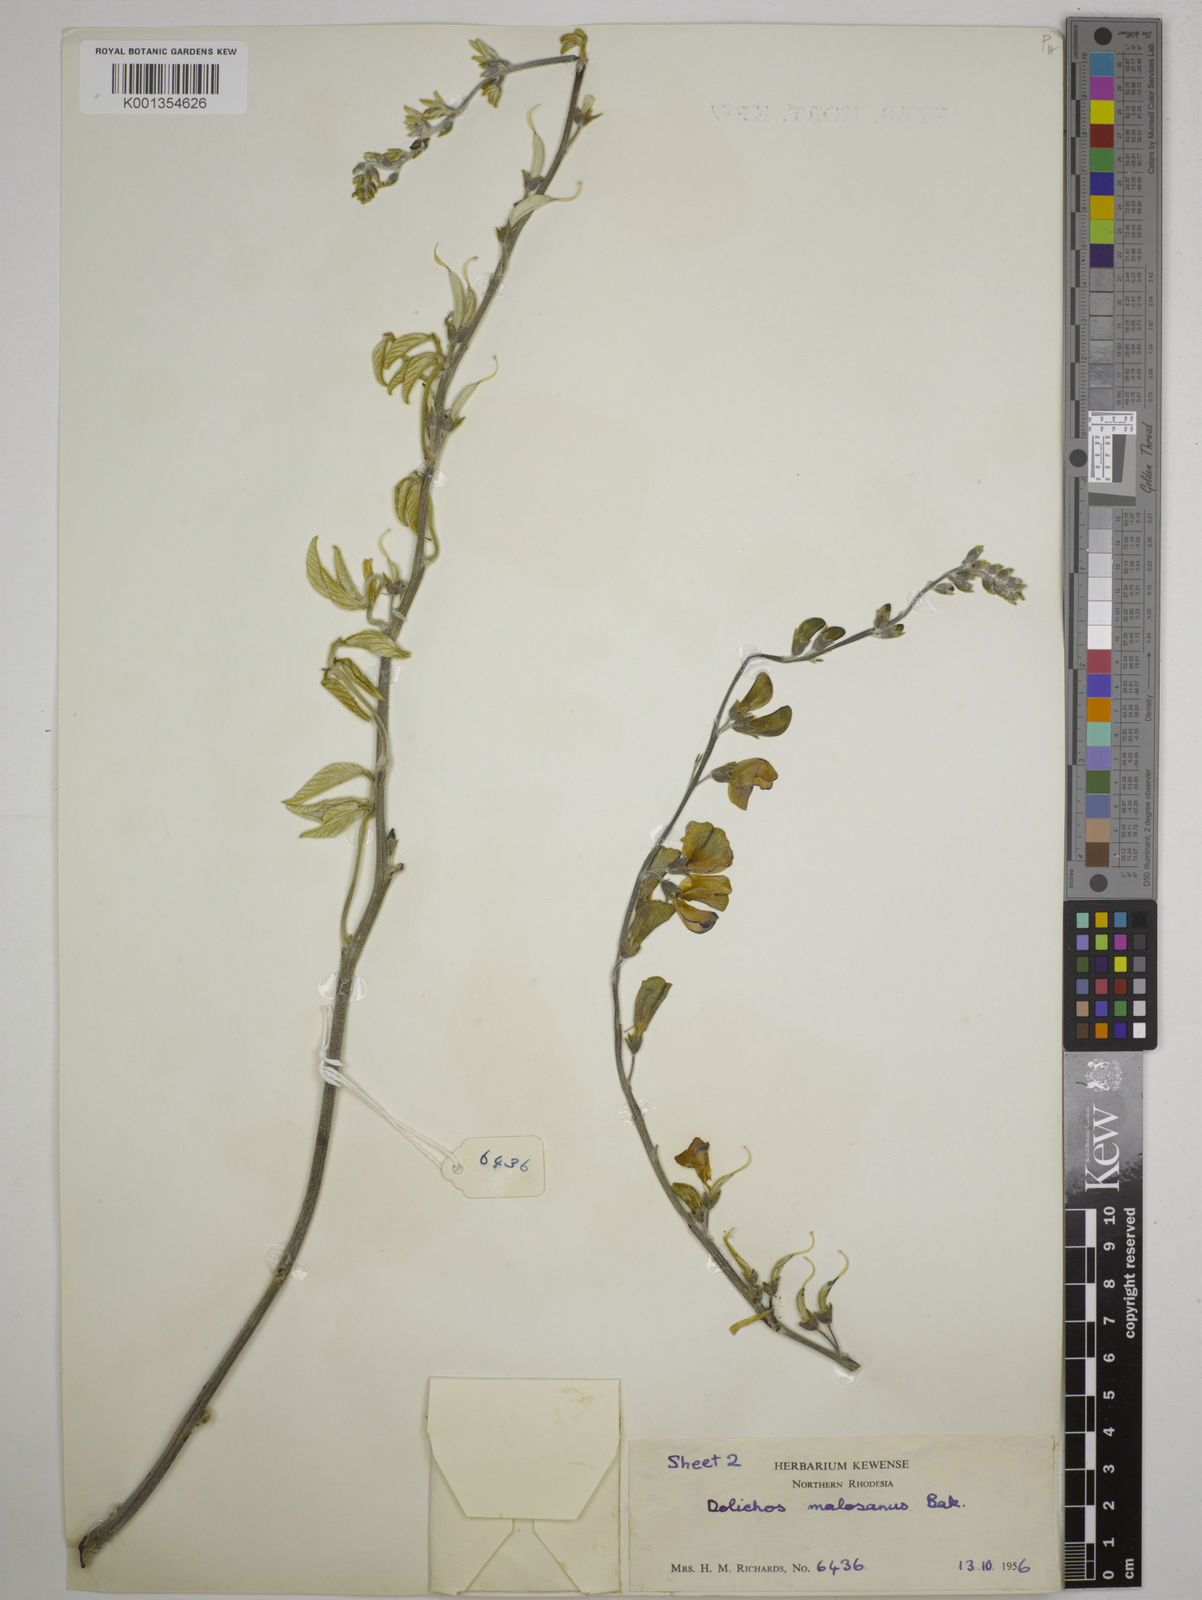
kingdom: Plantae
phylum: Tracheophyta
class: Magnoliopsida
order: Fabales
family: Fabaceae
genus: Dolichos
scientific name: Dolichos kilimandscharicus
